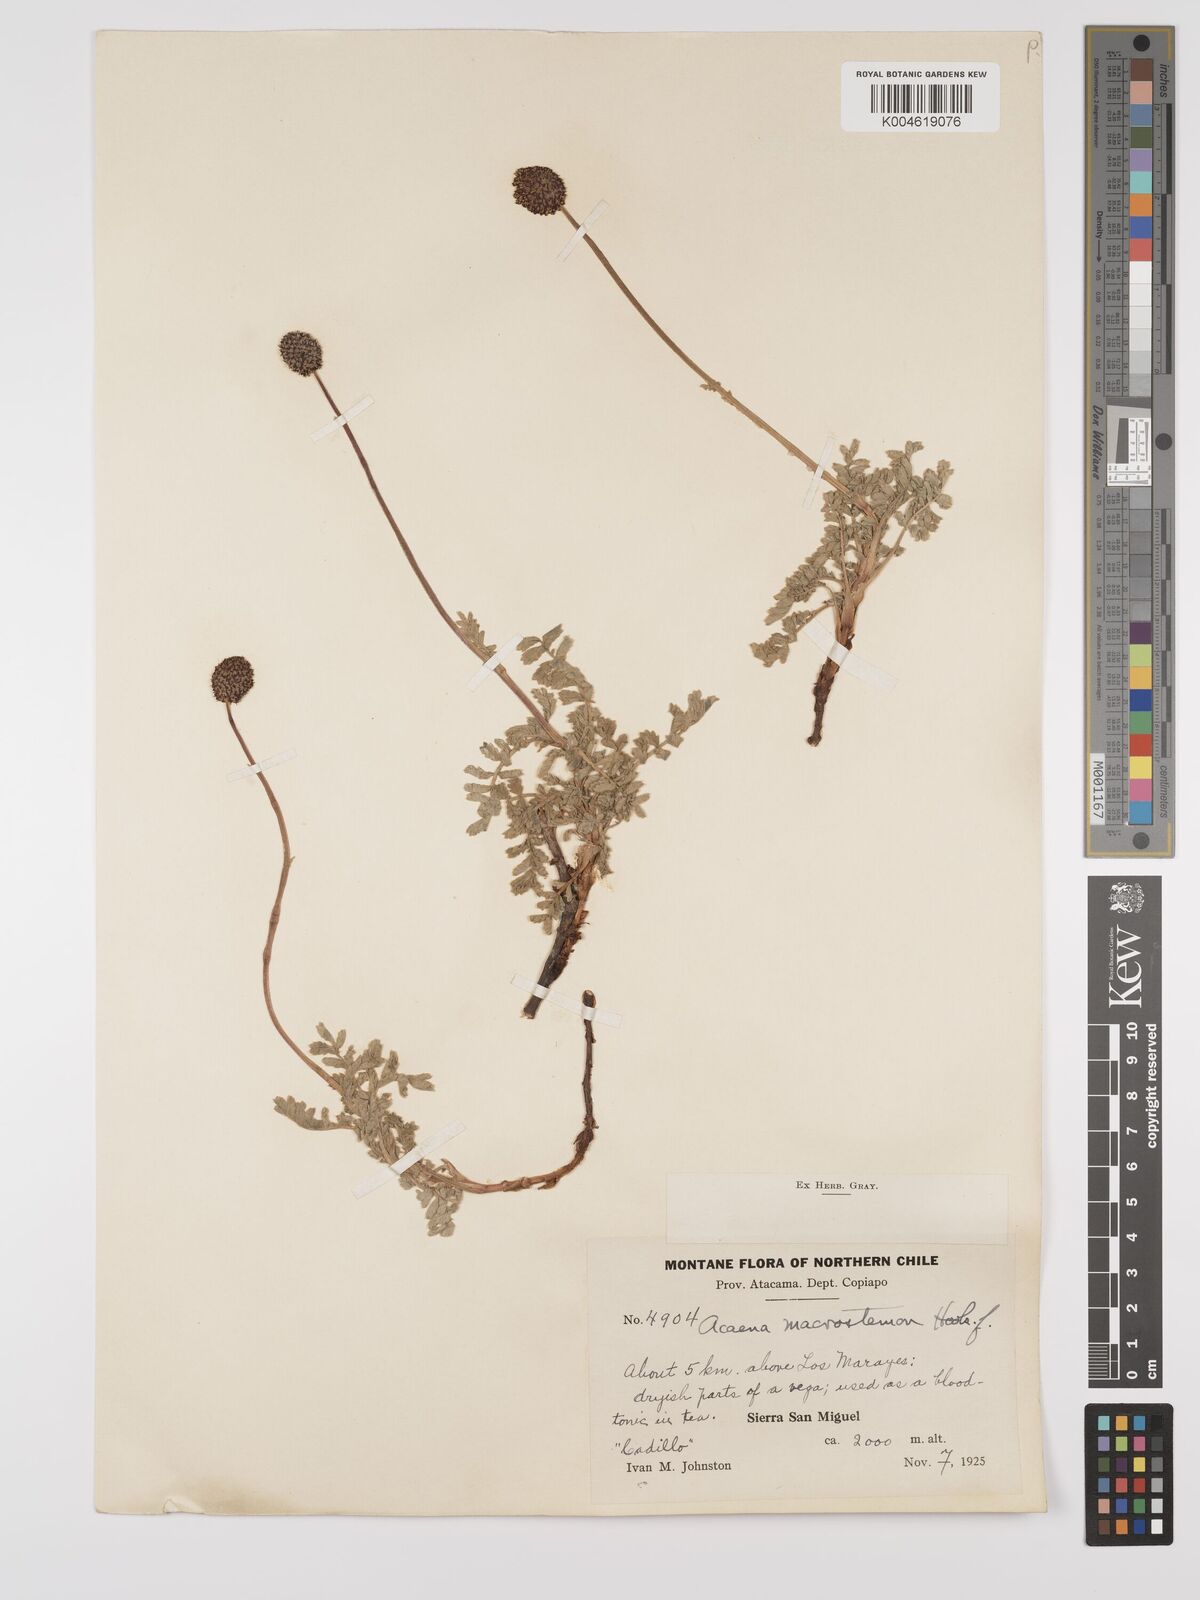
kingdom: Plantae
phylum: Tracheophyta
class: Magnoliopsida
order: Rosales
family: Rosaceae
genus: Acaena
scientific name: Acaena magellanica
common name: New zealand burr
